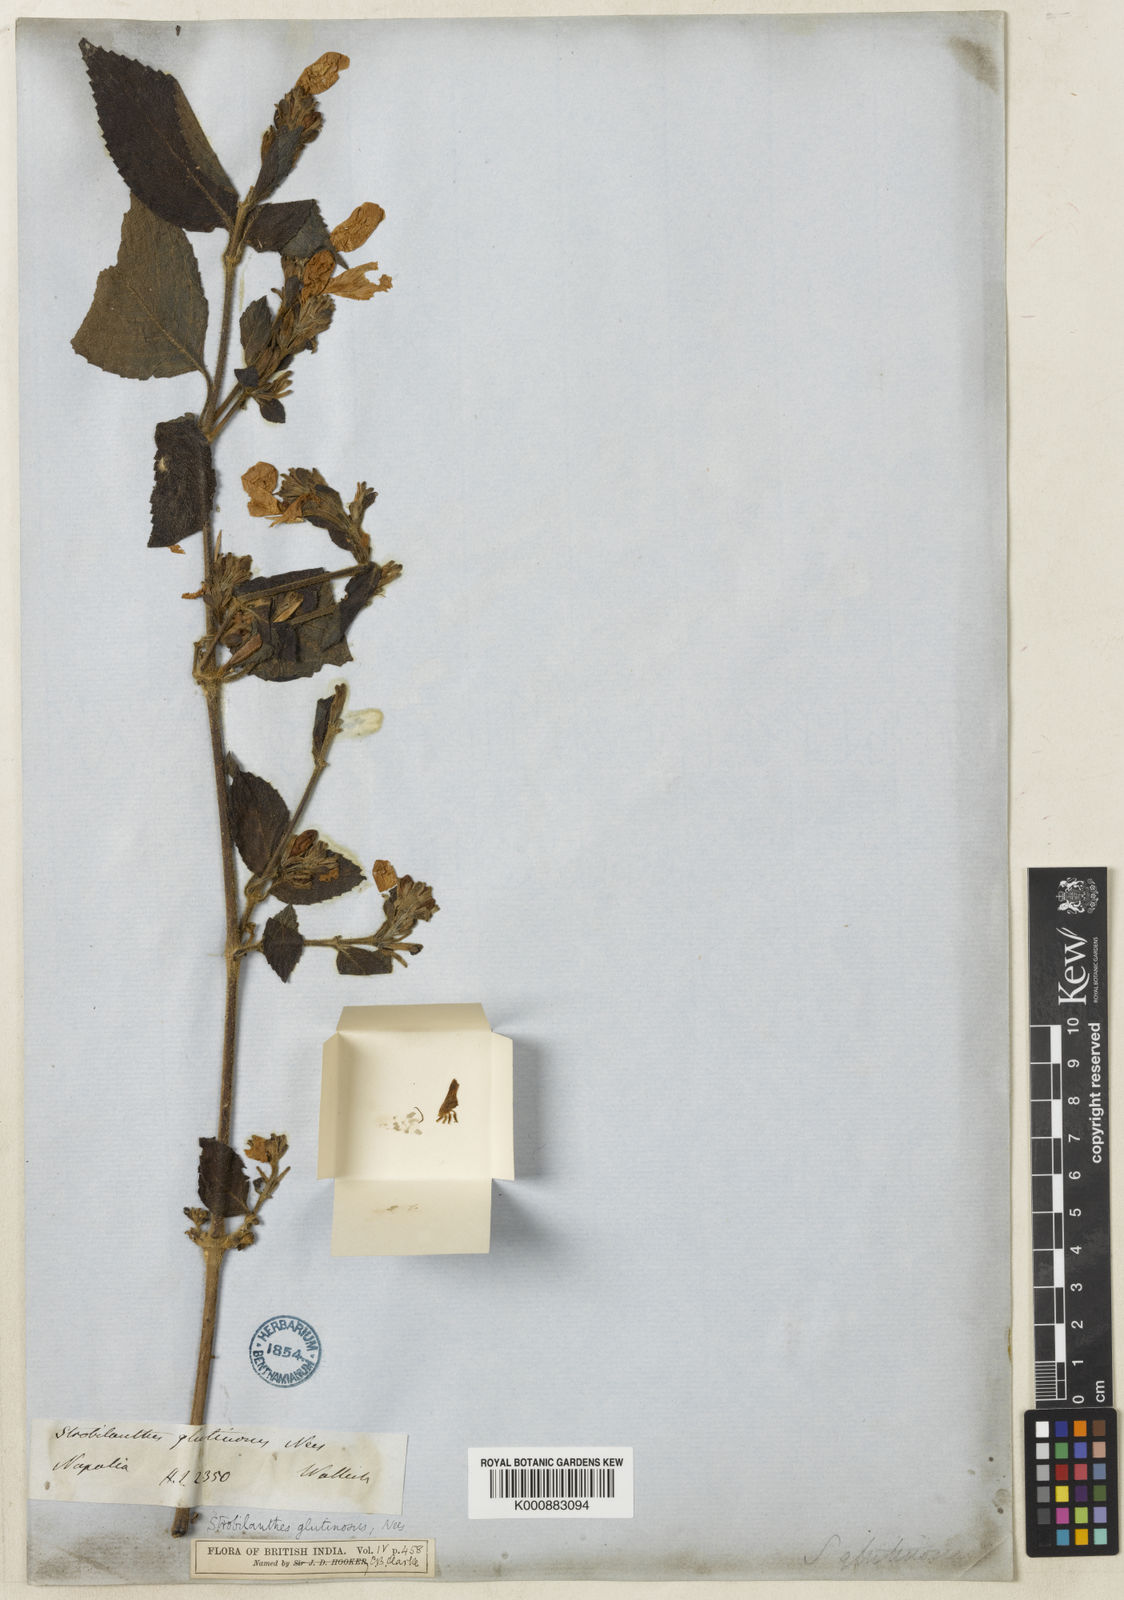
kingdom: Plantae
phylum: Tracheophyta
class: Magnoliopsida
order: Lamiales
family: Acanthaceae
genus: Strobilanthes
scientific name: Strobilanthes glutinosa
